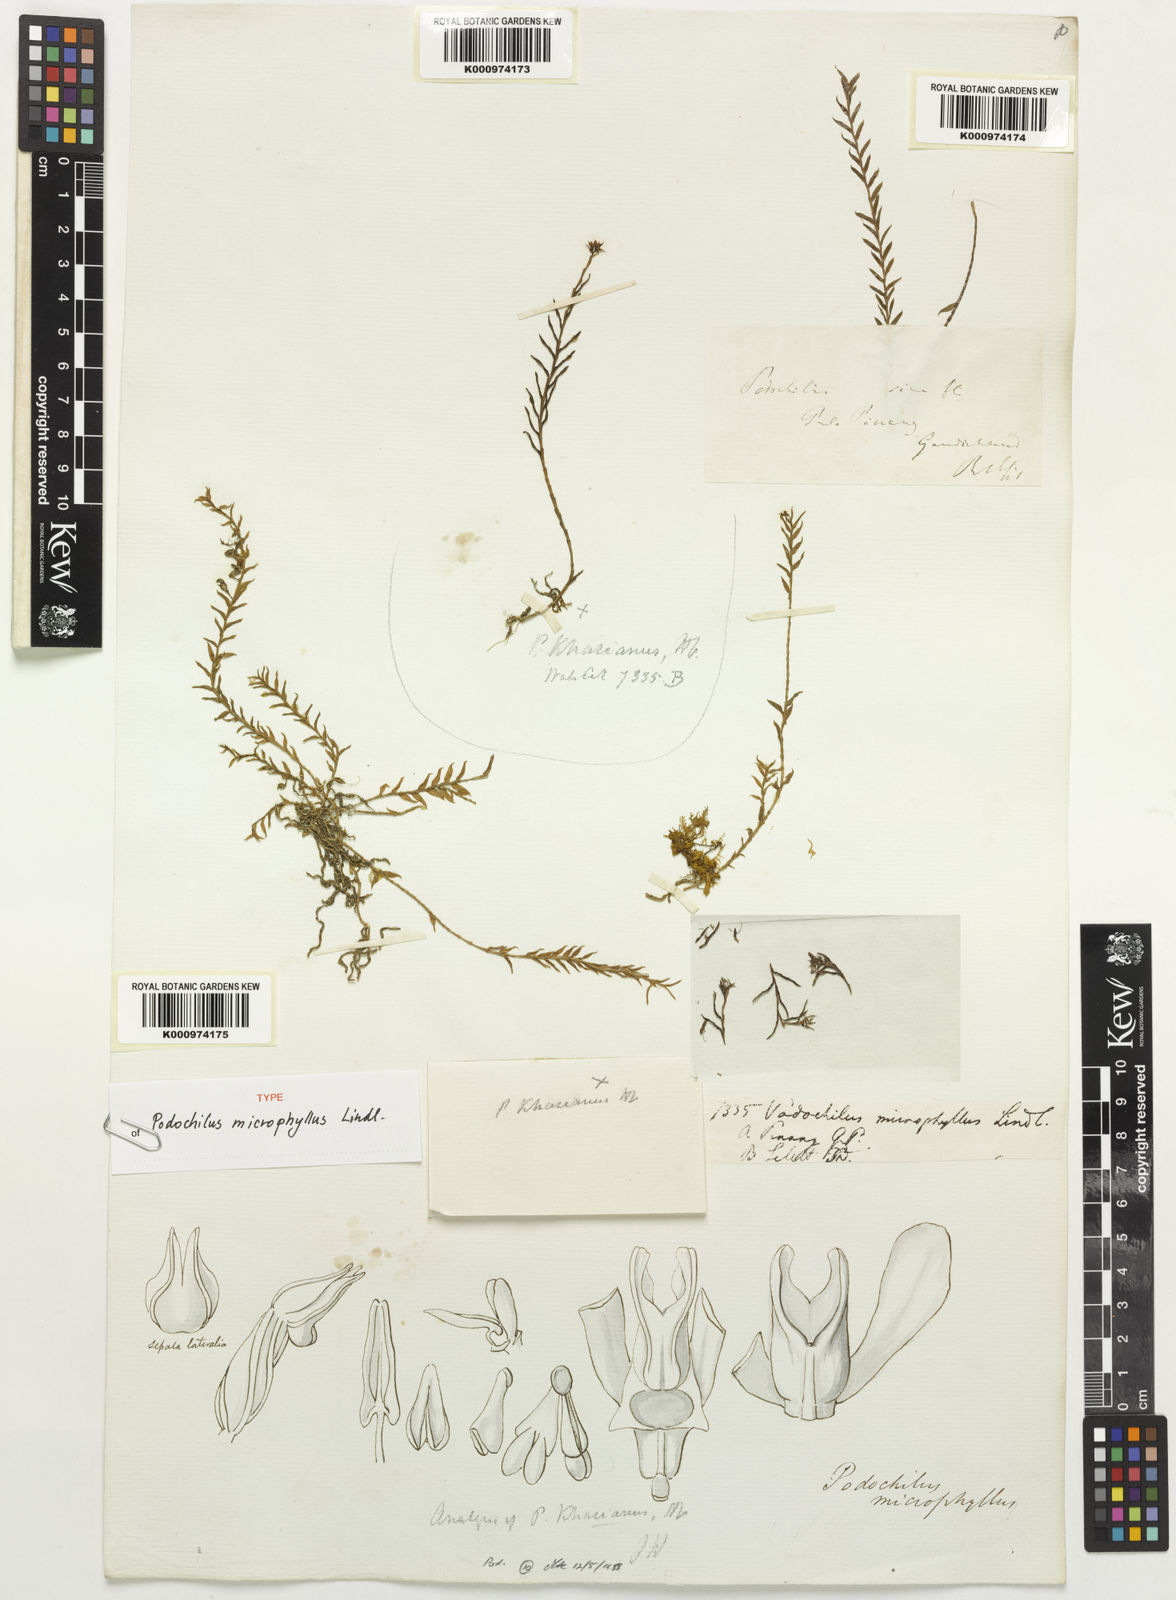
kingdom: Plantae
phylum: Tracheophyta
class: Liliopsida
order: Asparagales
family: Orchidaceae
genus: Podochilus
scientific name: Podochilus microphyllus
